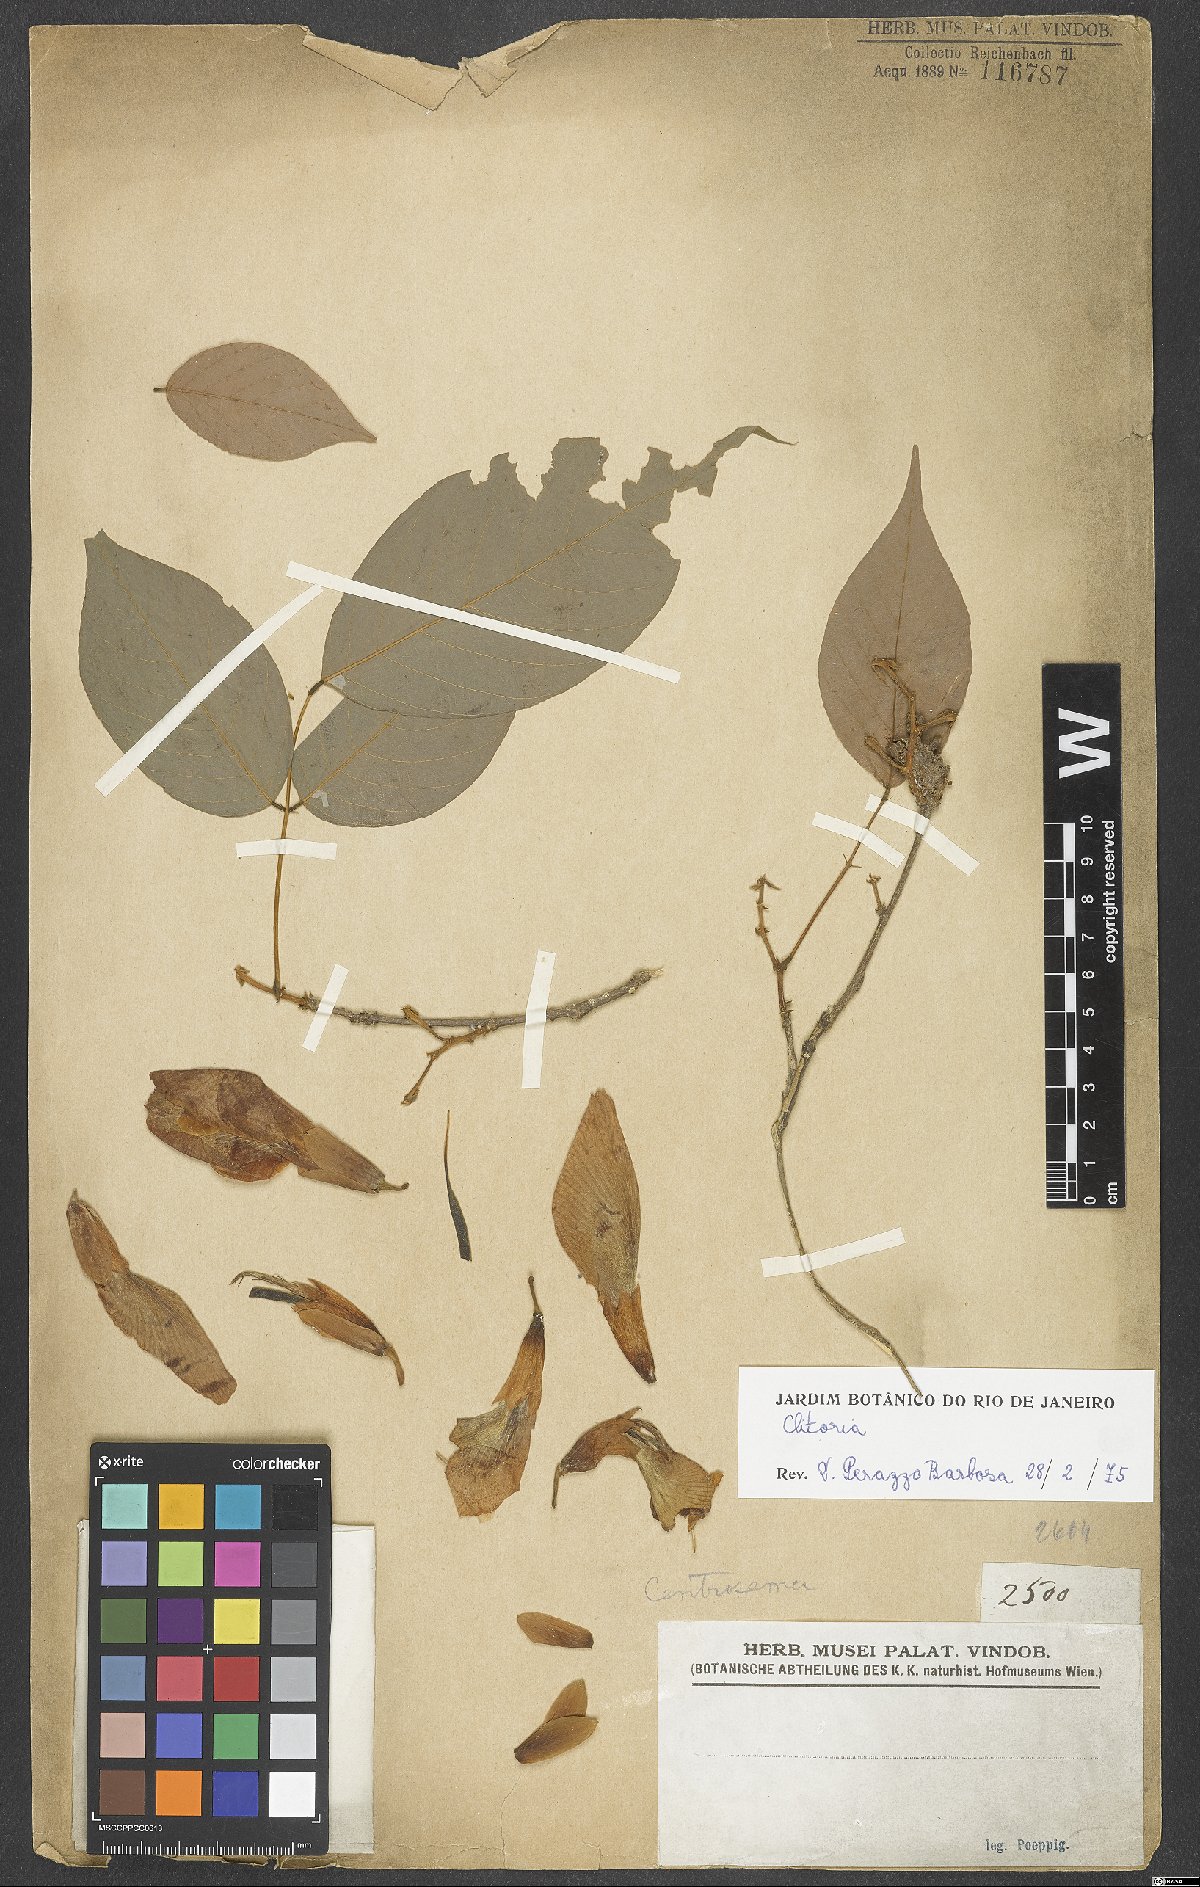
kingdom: Plantae
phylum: Tracheophyta
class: Magnoliopsida
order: Fabales
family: Fabaceae
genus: Clitoria
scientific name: Clitoria
